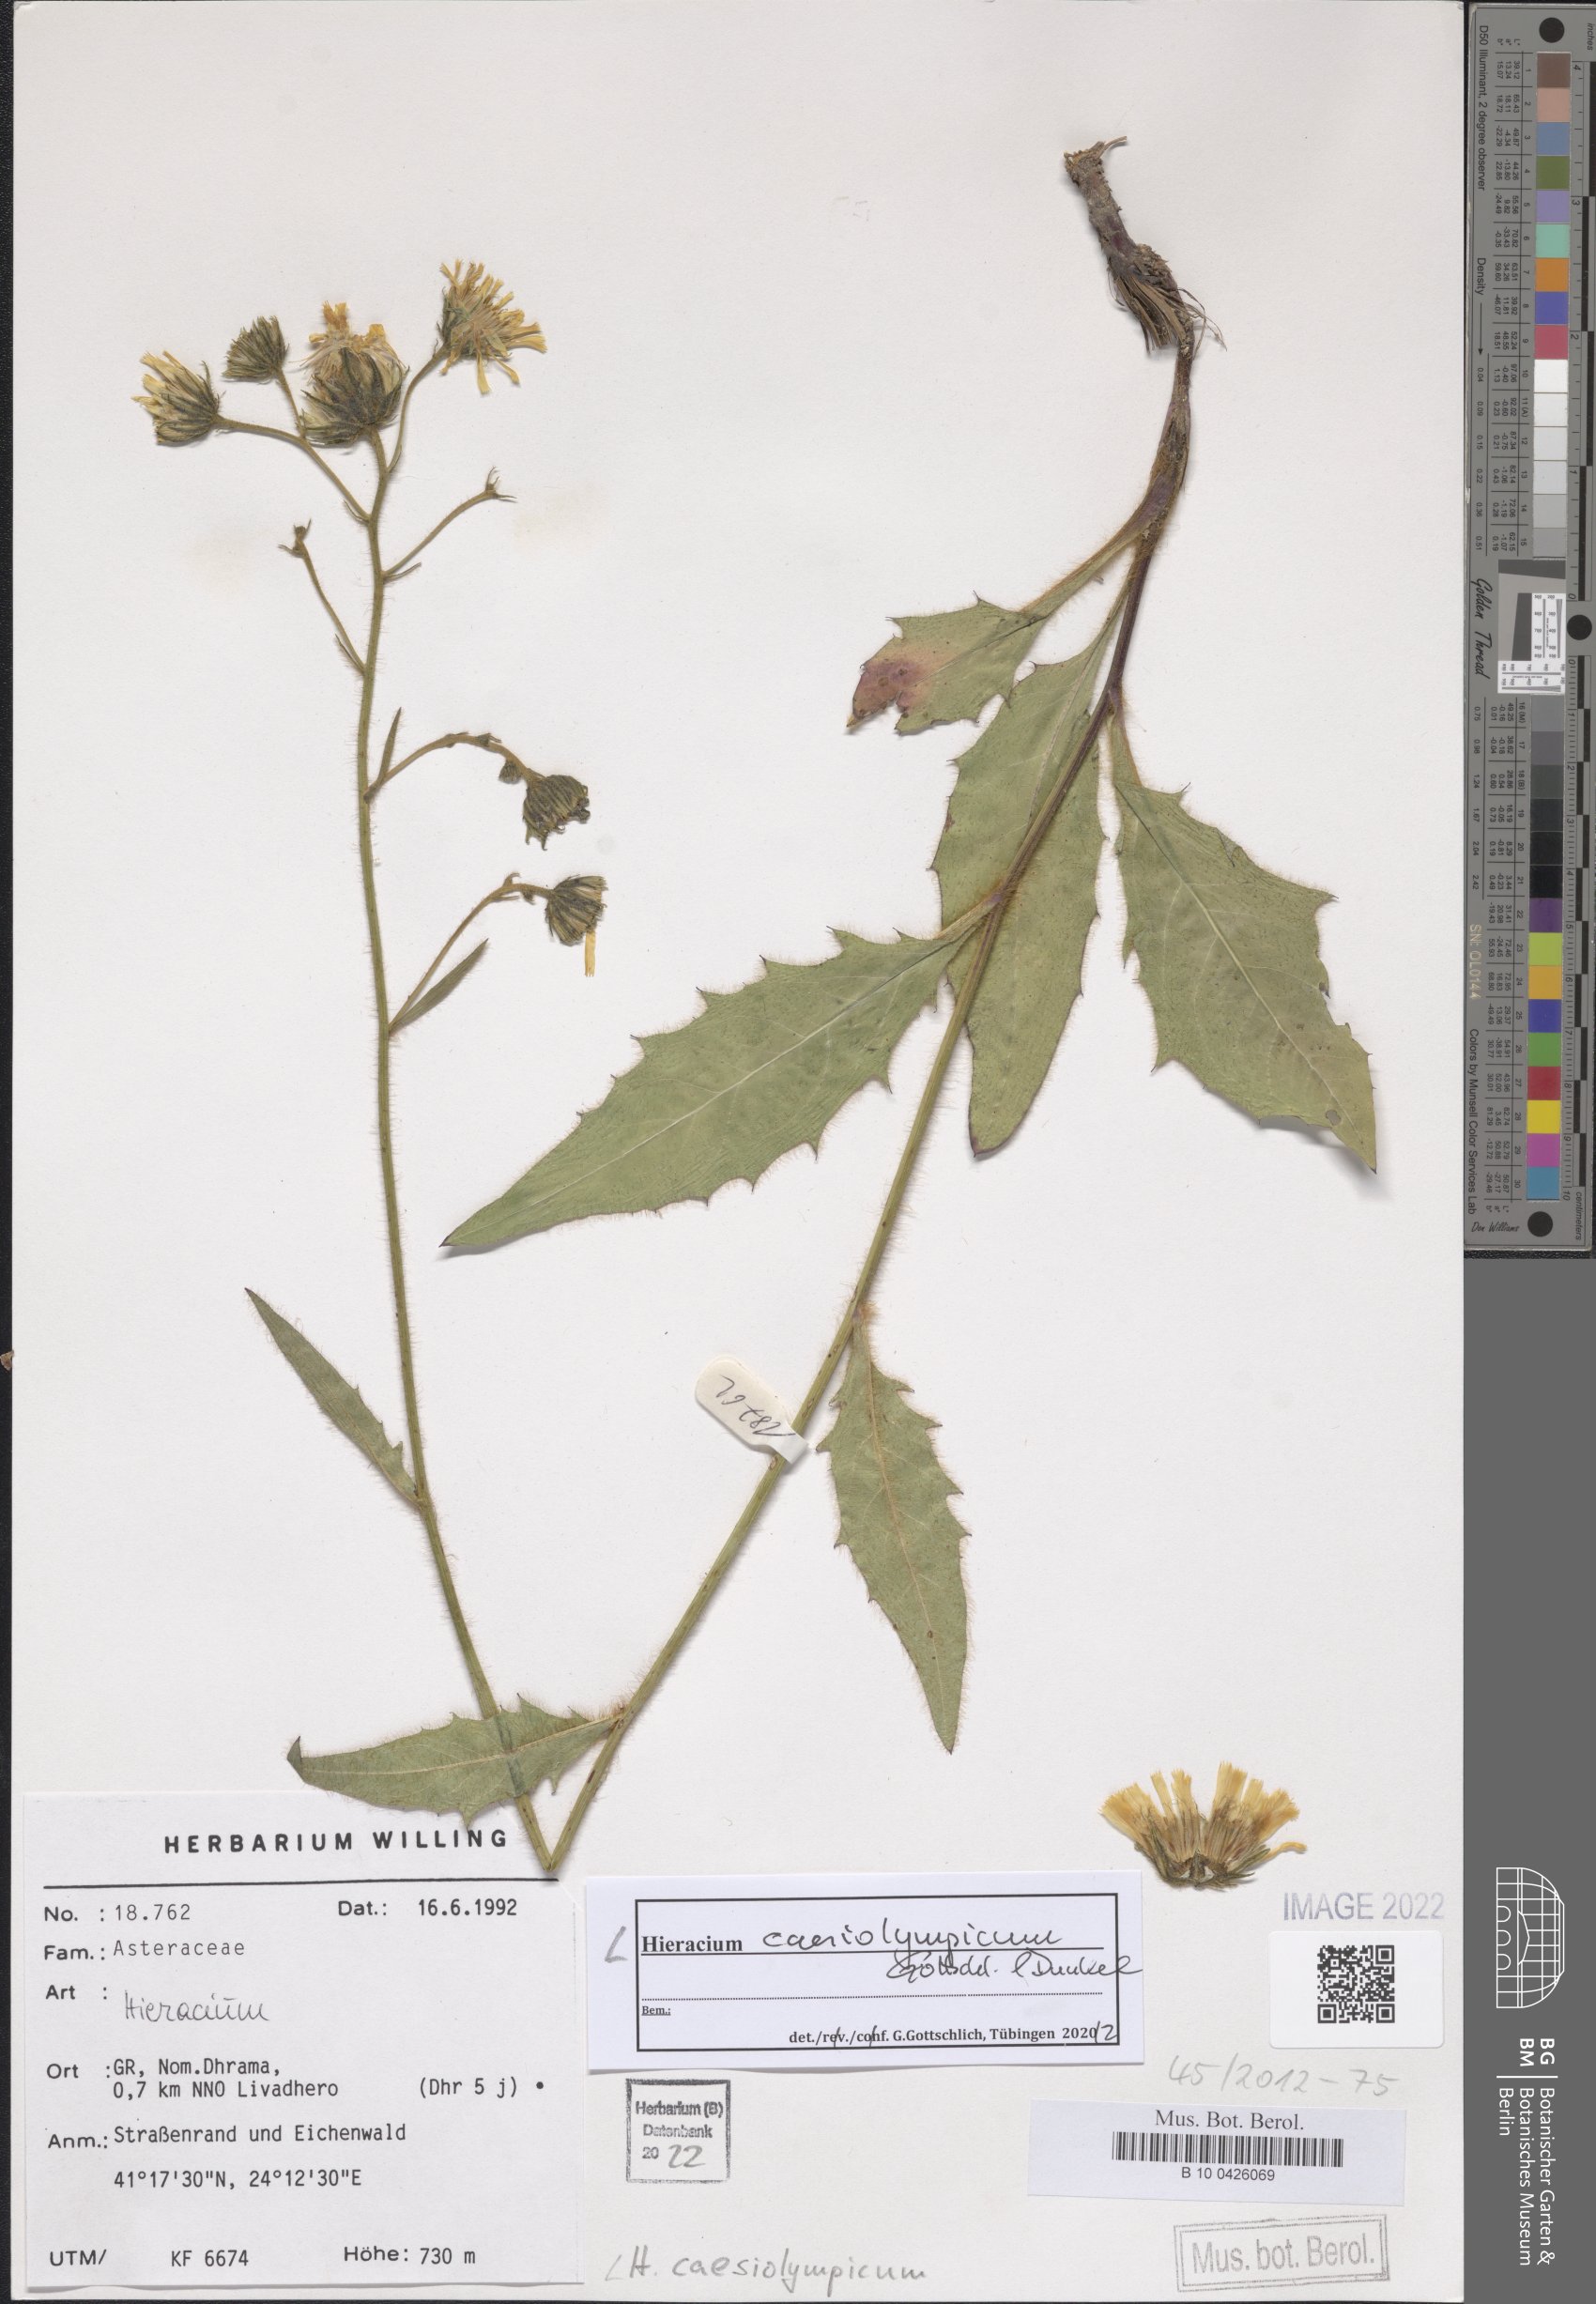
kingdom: Plantae
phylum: Tracheophyta
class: Magnoliopsida
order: Asterales
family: Asteraceae
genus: Hieracium
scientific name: Hieracium caesiolympicum
